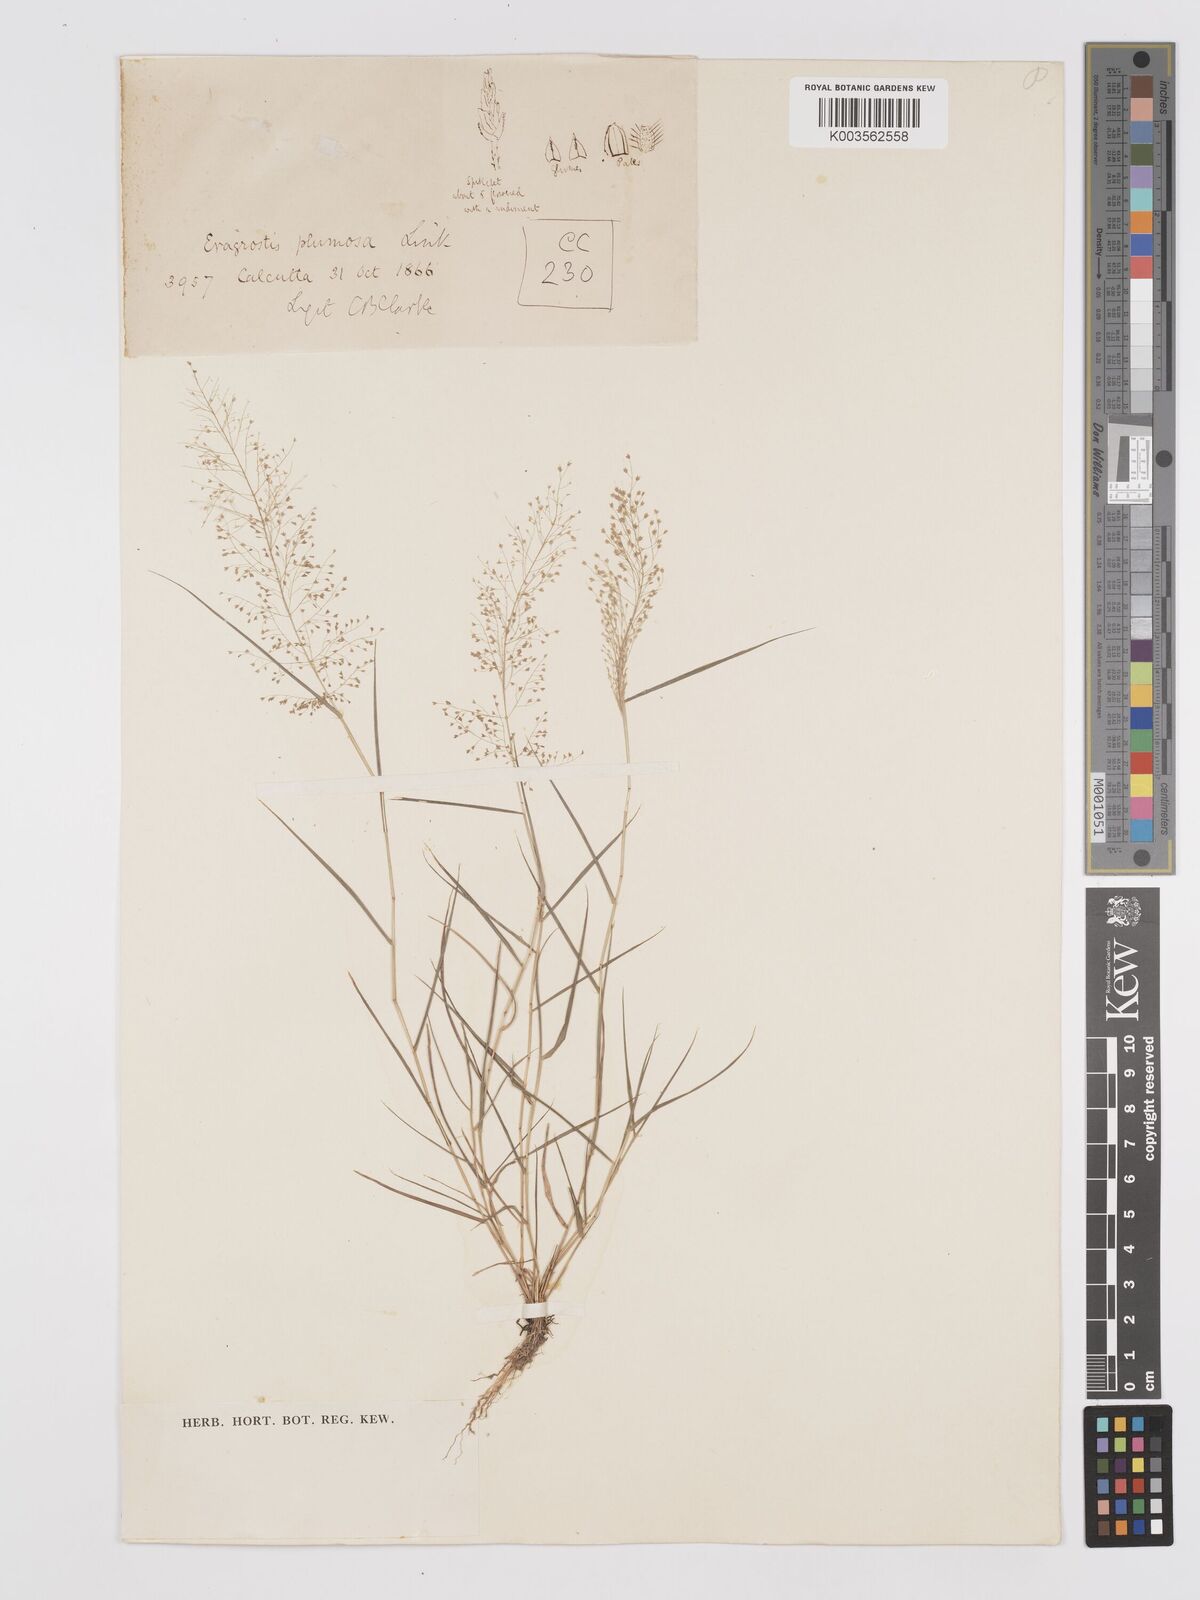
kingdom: Plantae
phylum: Tracheophyta
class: Liliopsida
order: Poales
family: Poaceae
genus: Eragrostis
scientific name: Eragrostis tenella
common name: Japanese lovegrass
